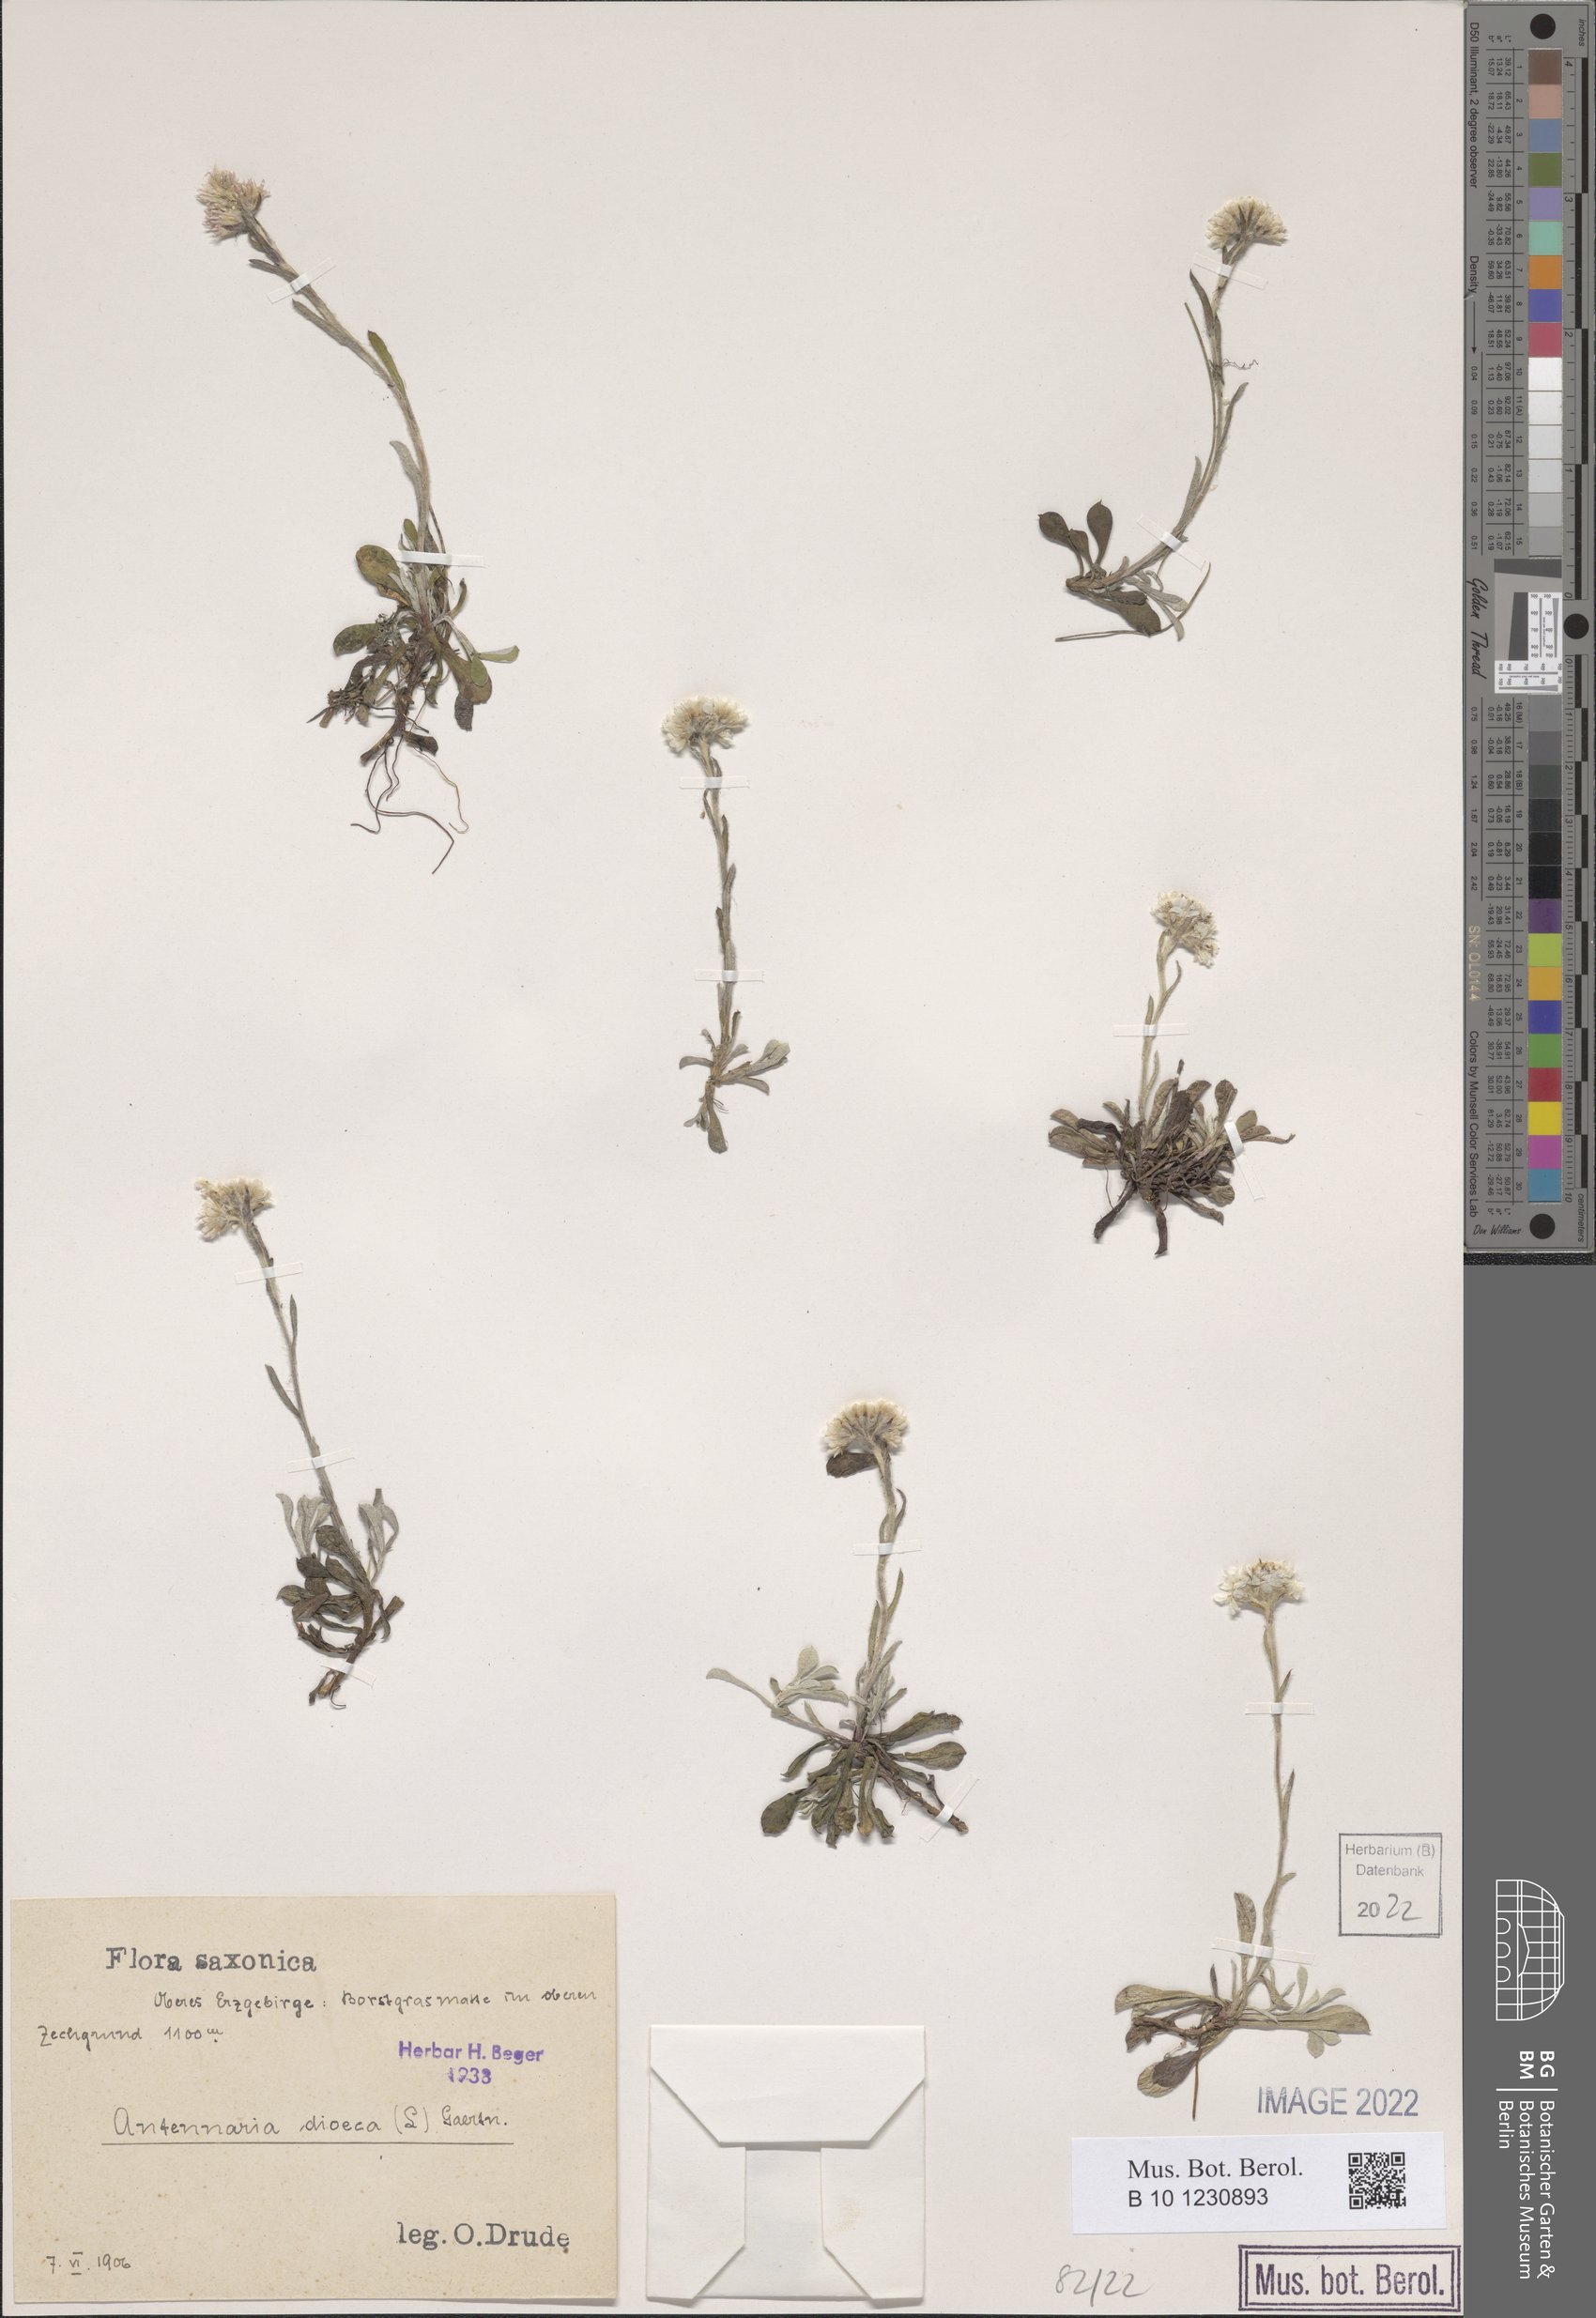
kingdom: Plantae
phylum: Tracheophyta
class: Magnoliopsida
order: Asterales
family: Asteraceae
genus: Antennaria
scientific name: Antennaria dioica
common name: Mountain everlasting
